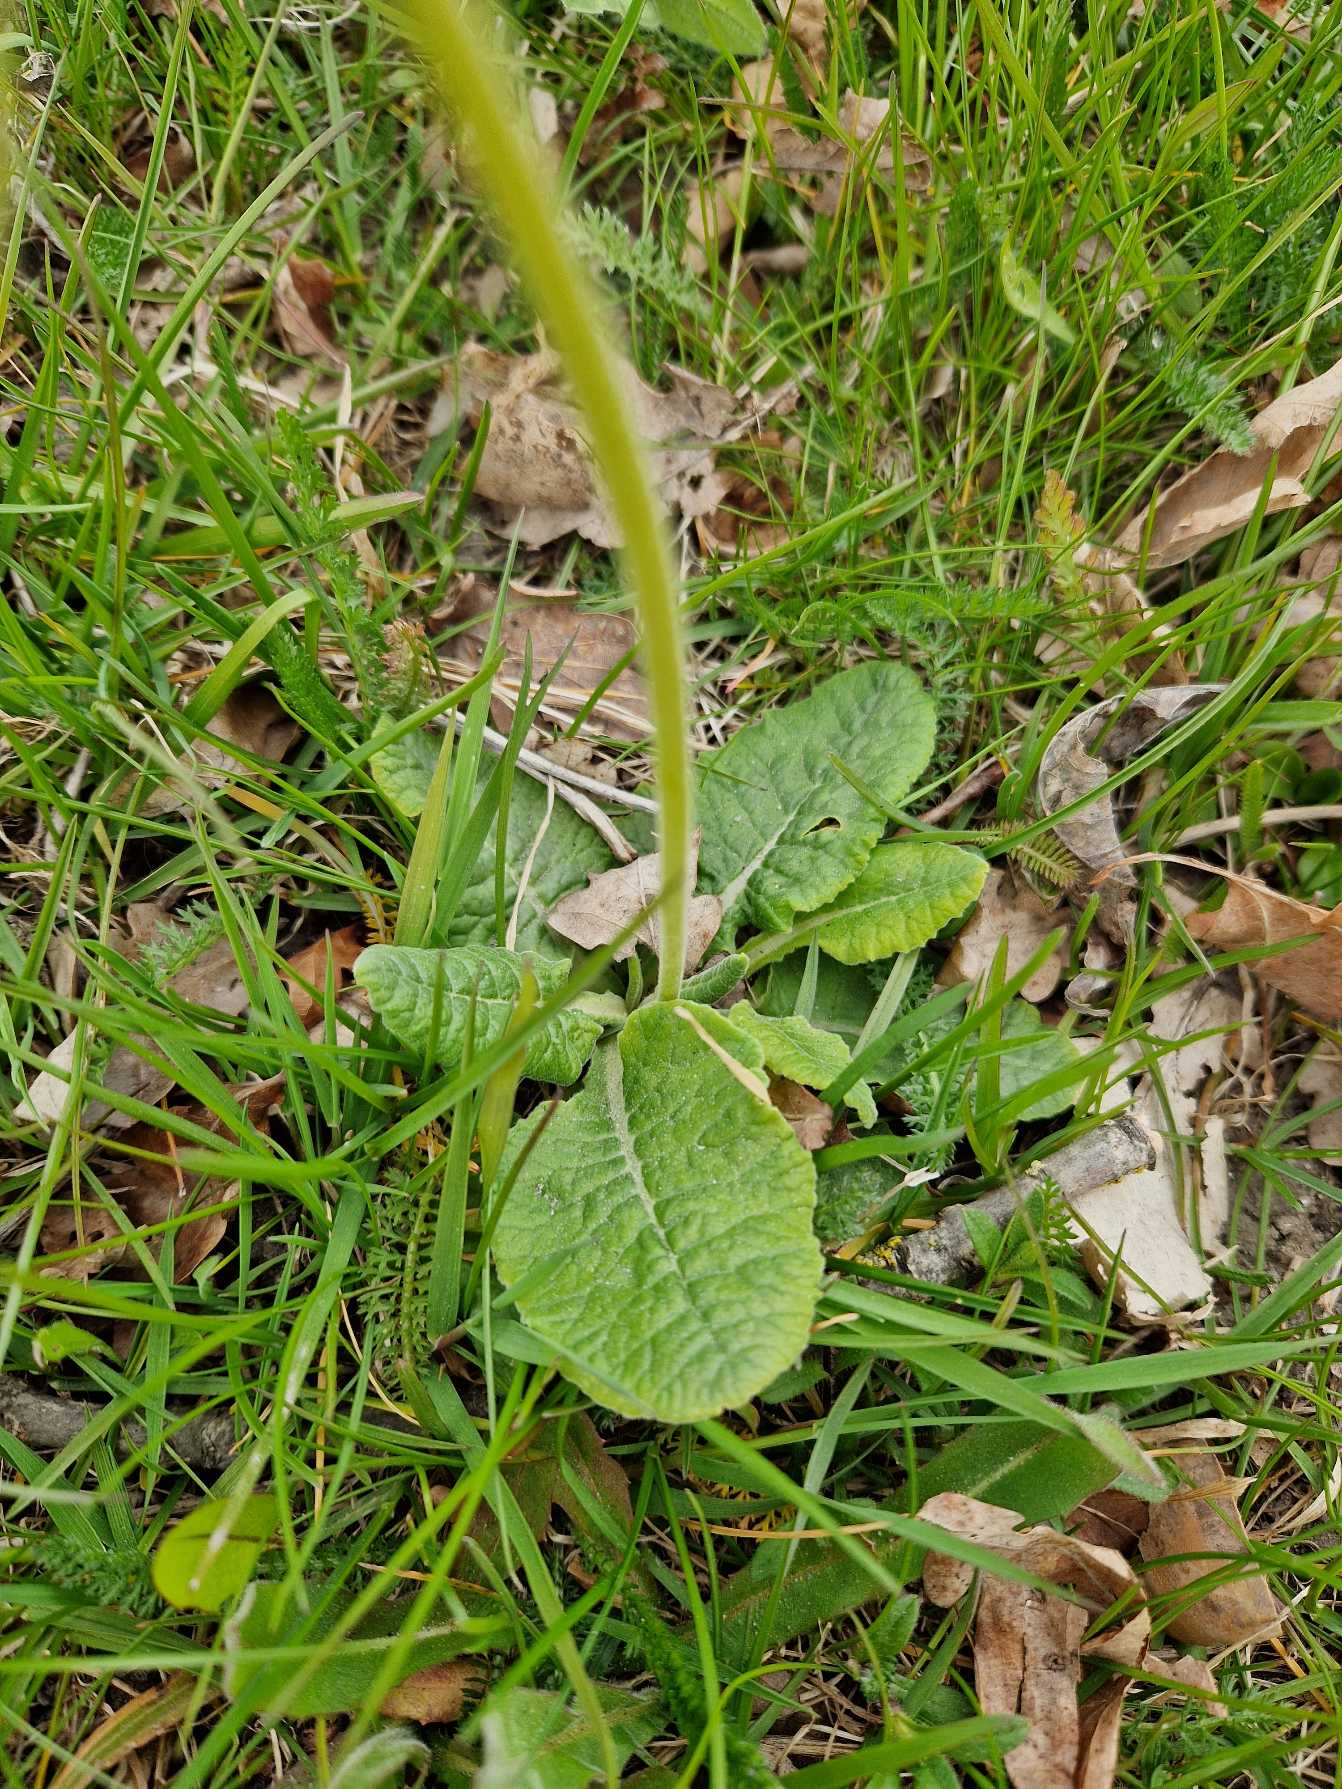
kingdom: Plantae
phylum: Tracheophyta
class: Magnoliopsida
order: Ericales
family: Primulaceae
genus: Primula
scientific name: Primula veris
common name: Hulkravet kodriver
